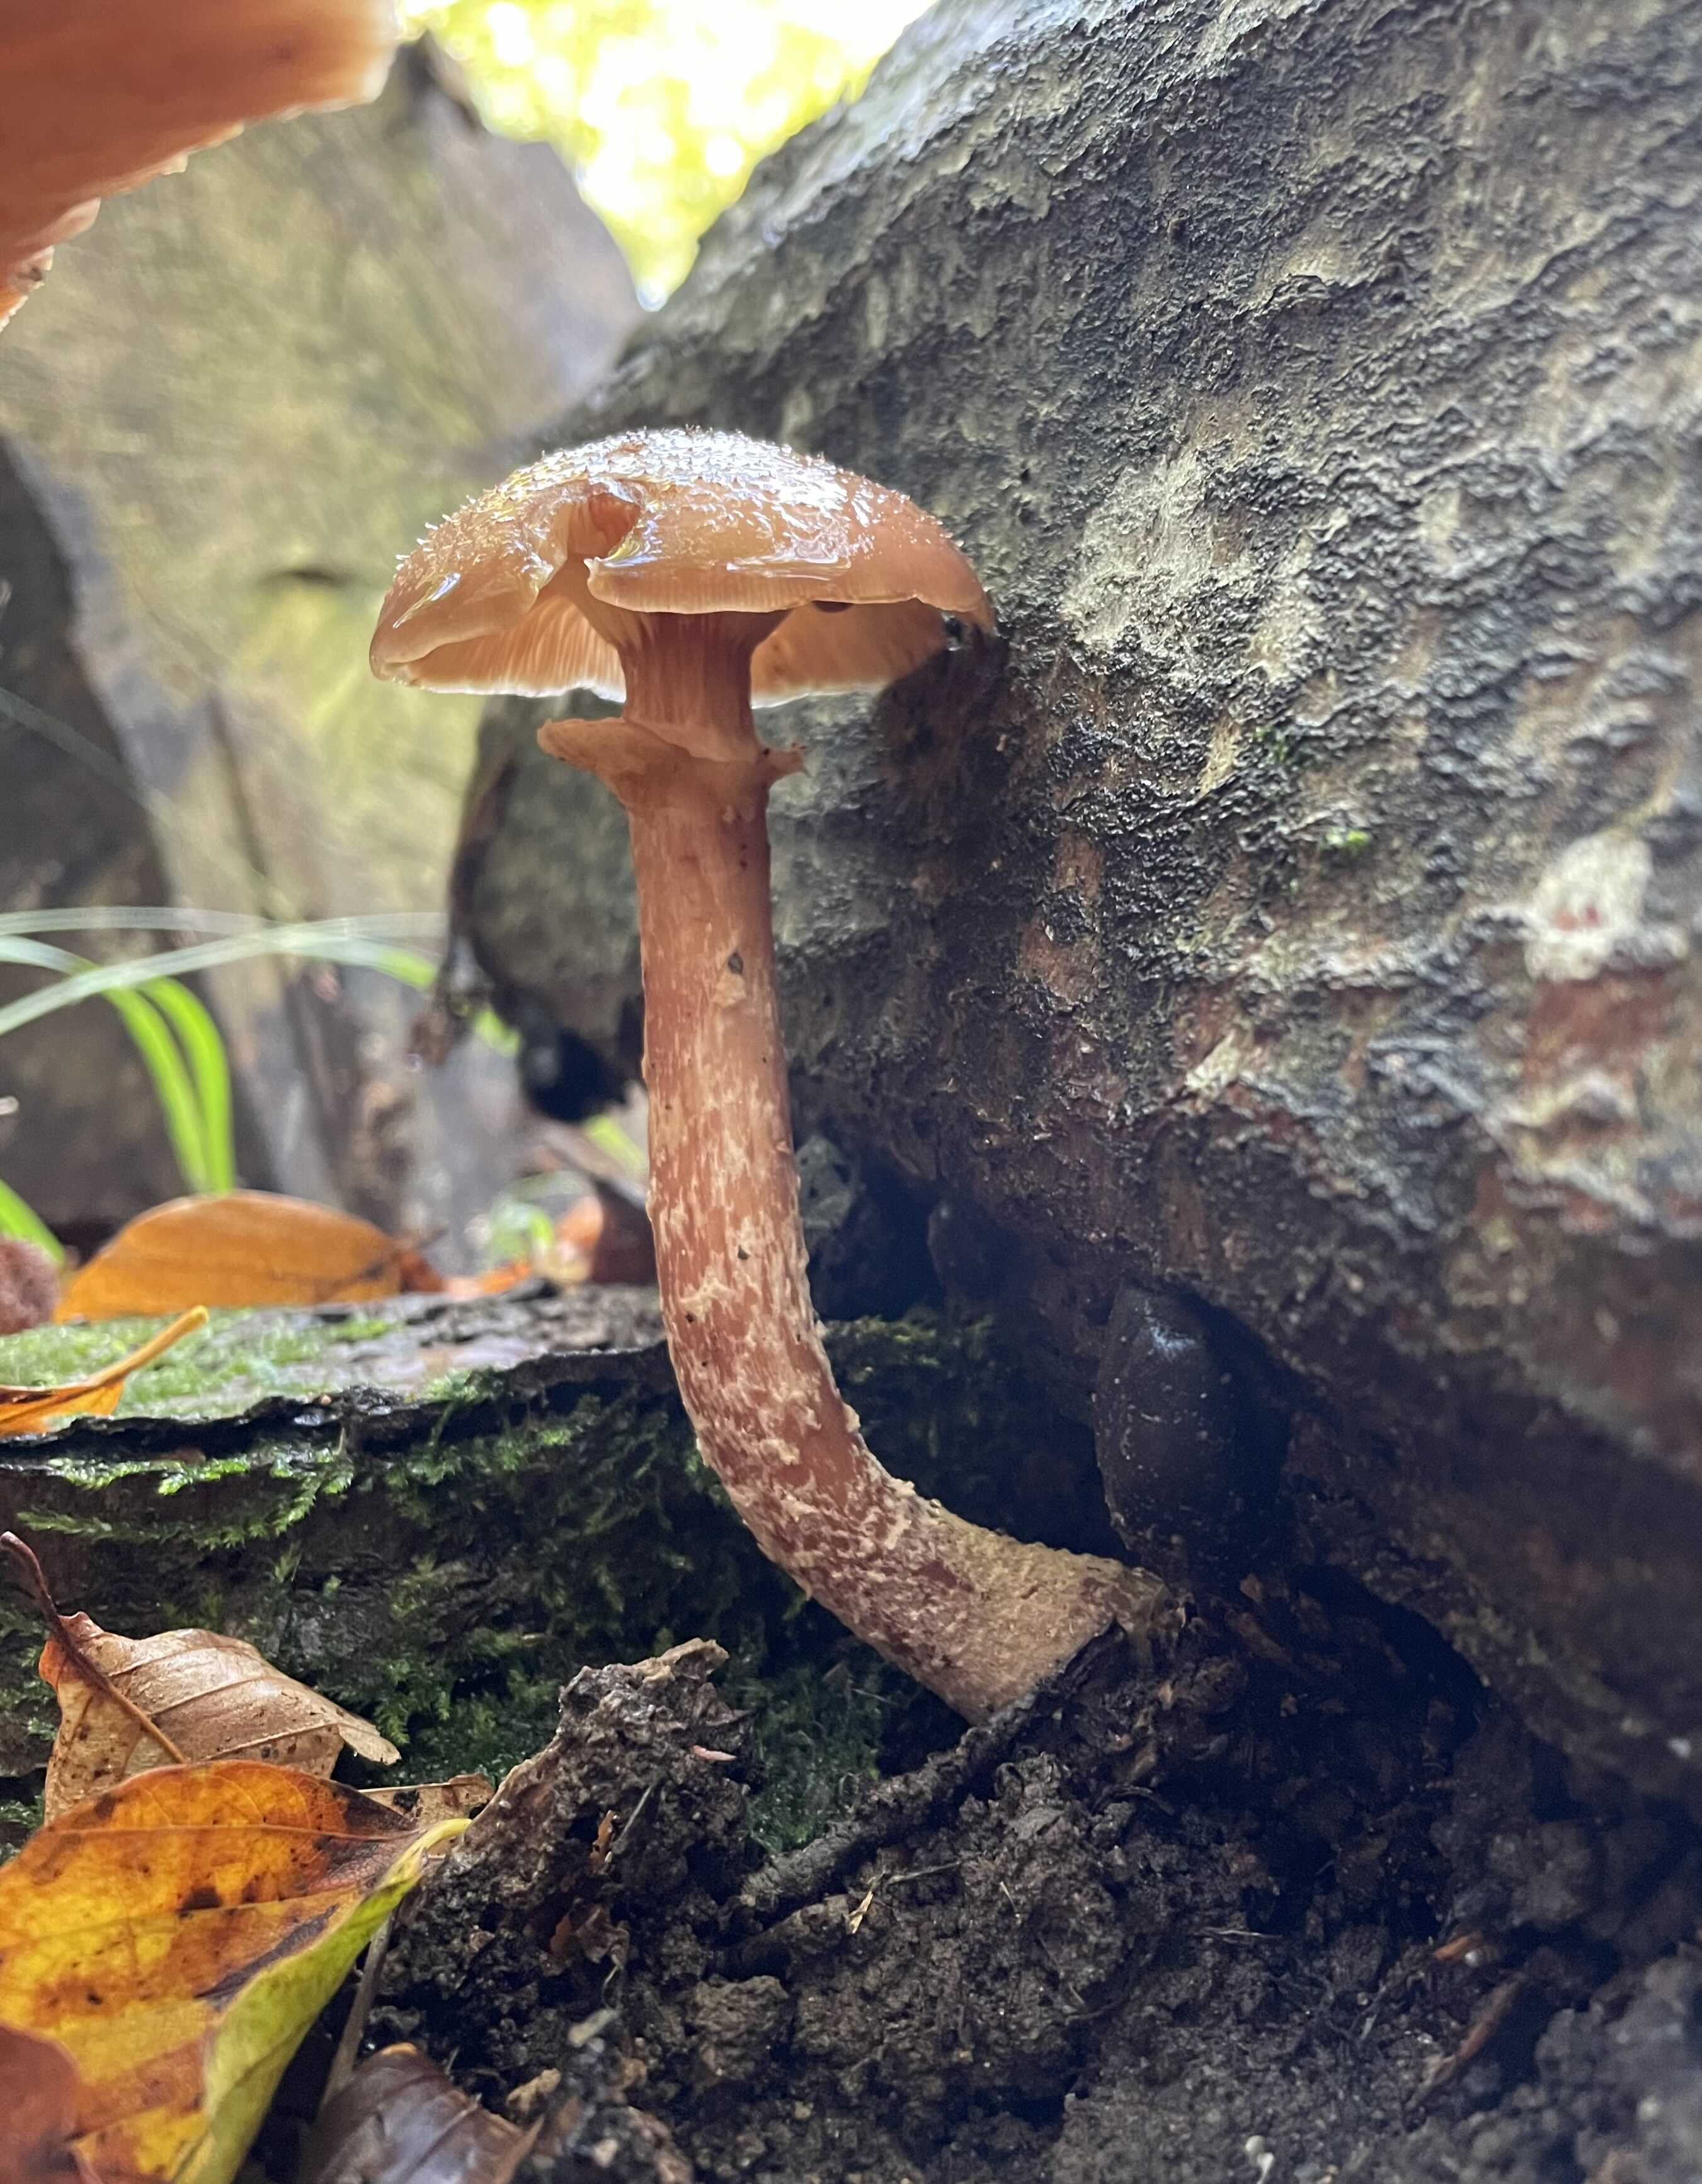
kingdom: Fungi
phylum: Basidiomycota
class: Agaricomycetes
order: Agaricales
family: Physalacriaceae
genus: Armillaria
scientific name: Armillaria
